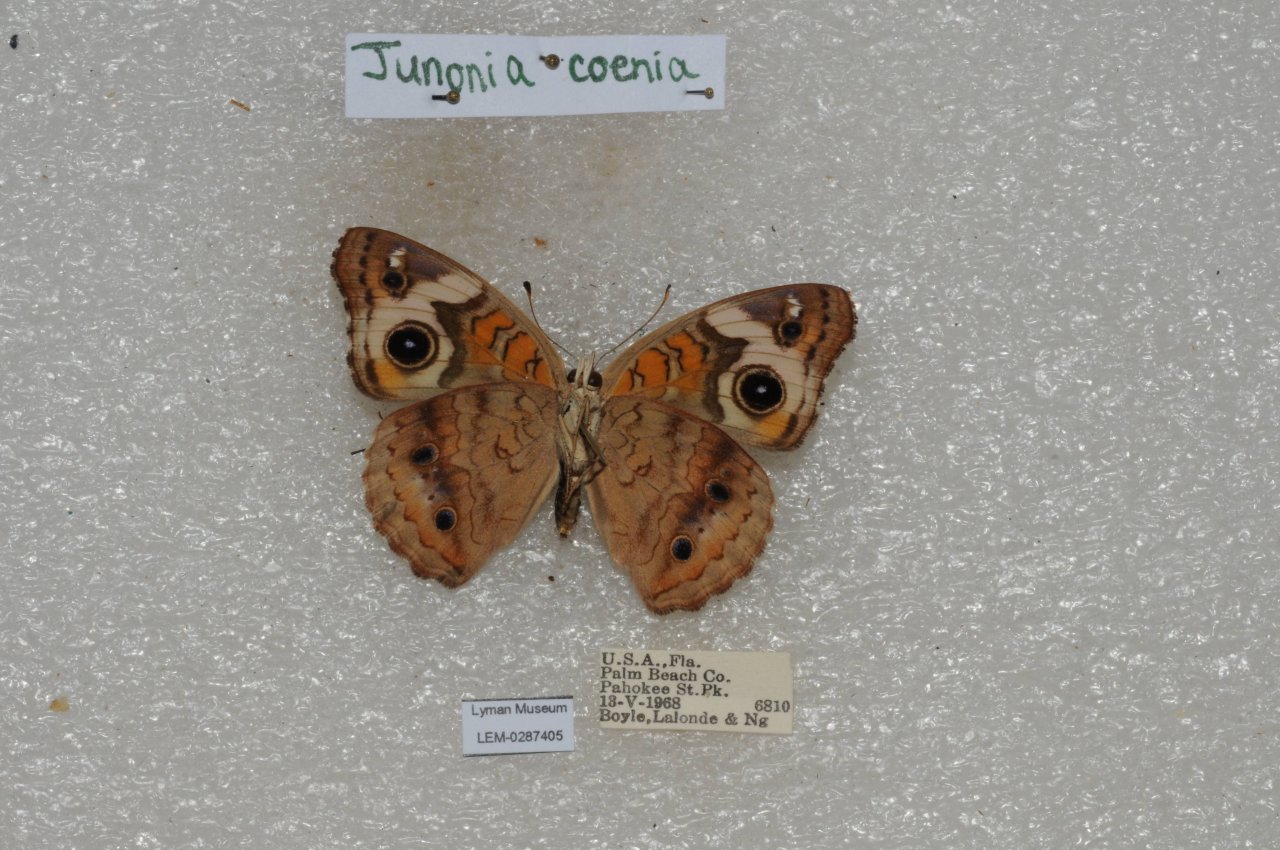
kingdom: Animalia
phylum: Arthropoda
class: Insecta
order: Lepidoptera
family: Nymphalidae
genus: Junonia
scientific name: Junonia coenia
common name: Common Buckeye
